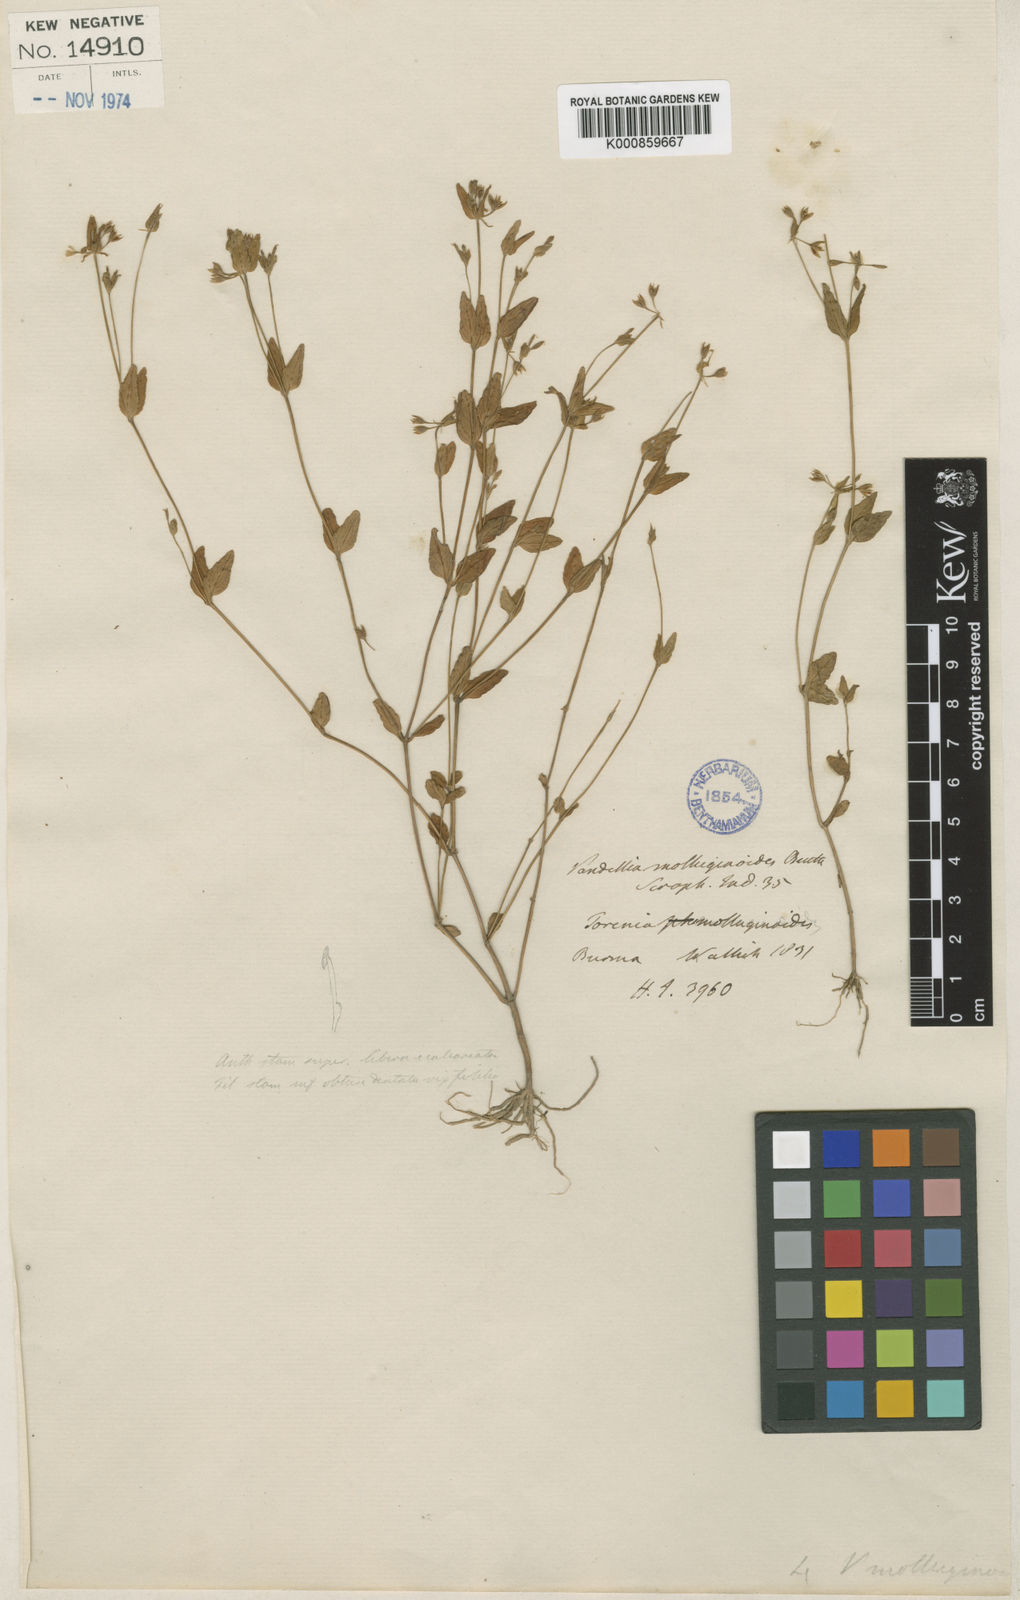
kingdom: Plantae
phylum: Tracheophyta
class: Magnoliopsida
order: Lamiales
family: Linderniaceae
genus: Torenia
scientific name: Torenia molluginoides
